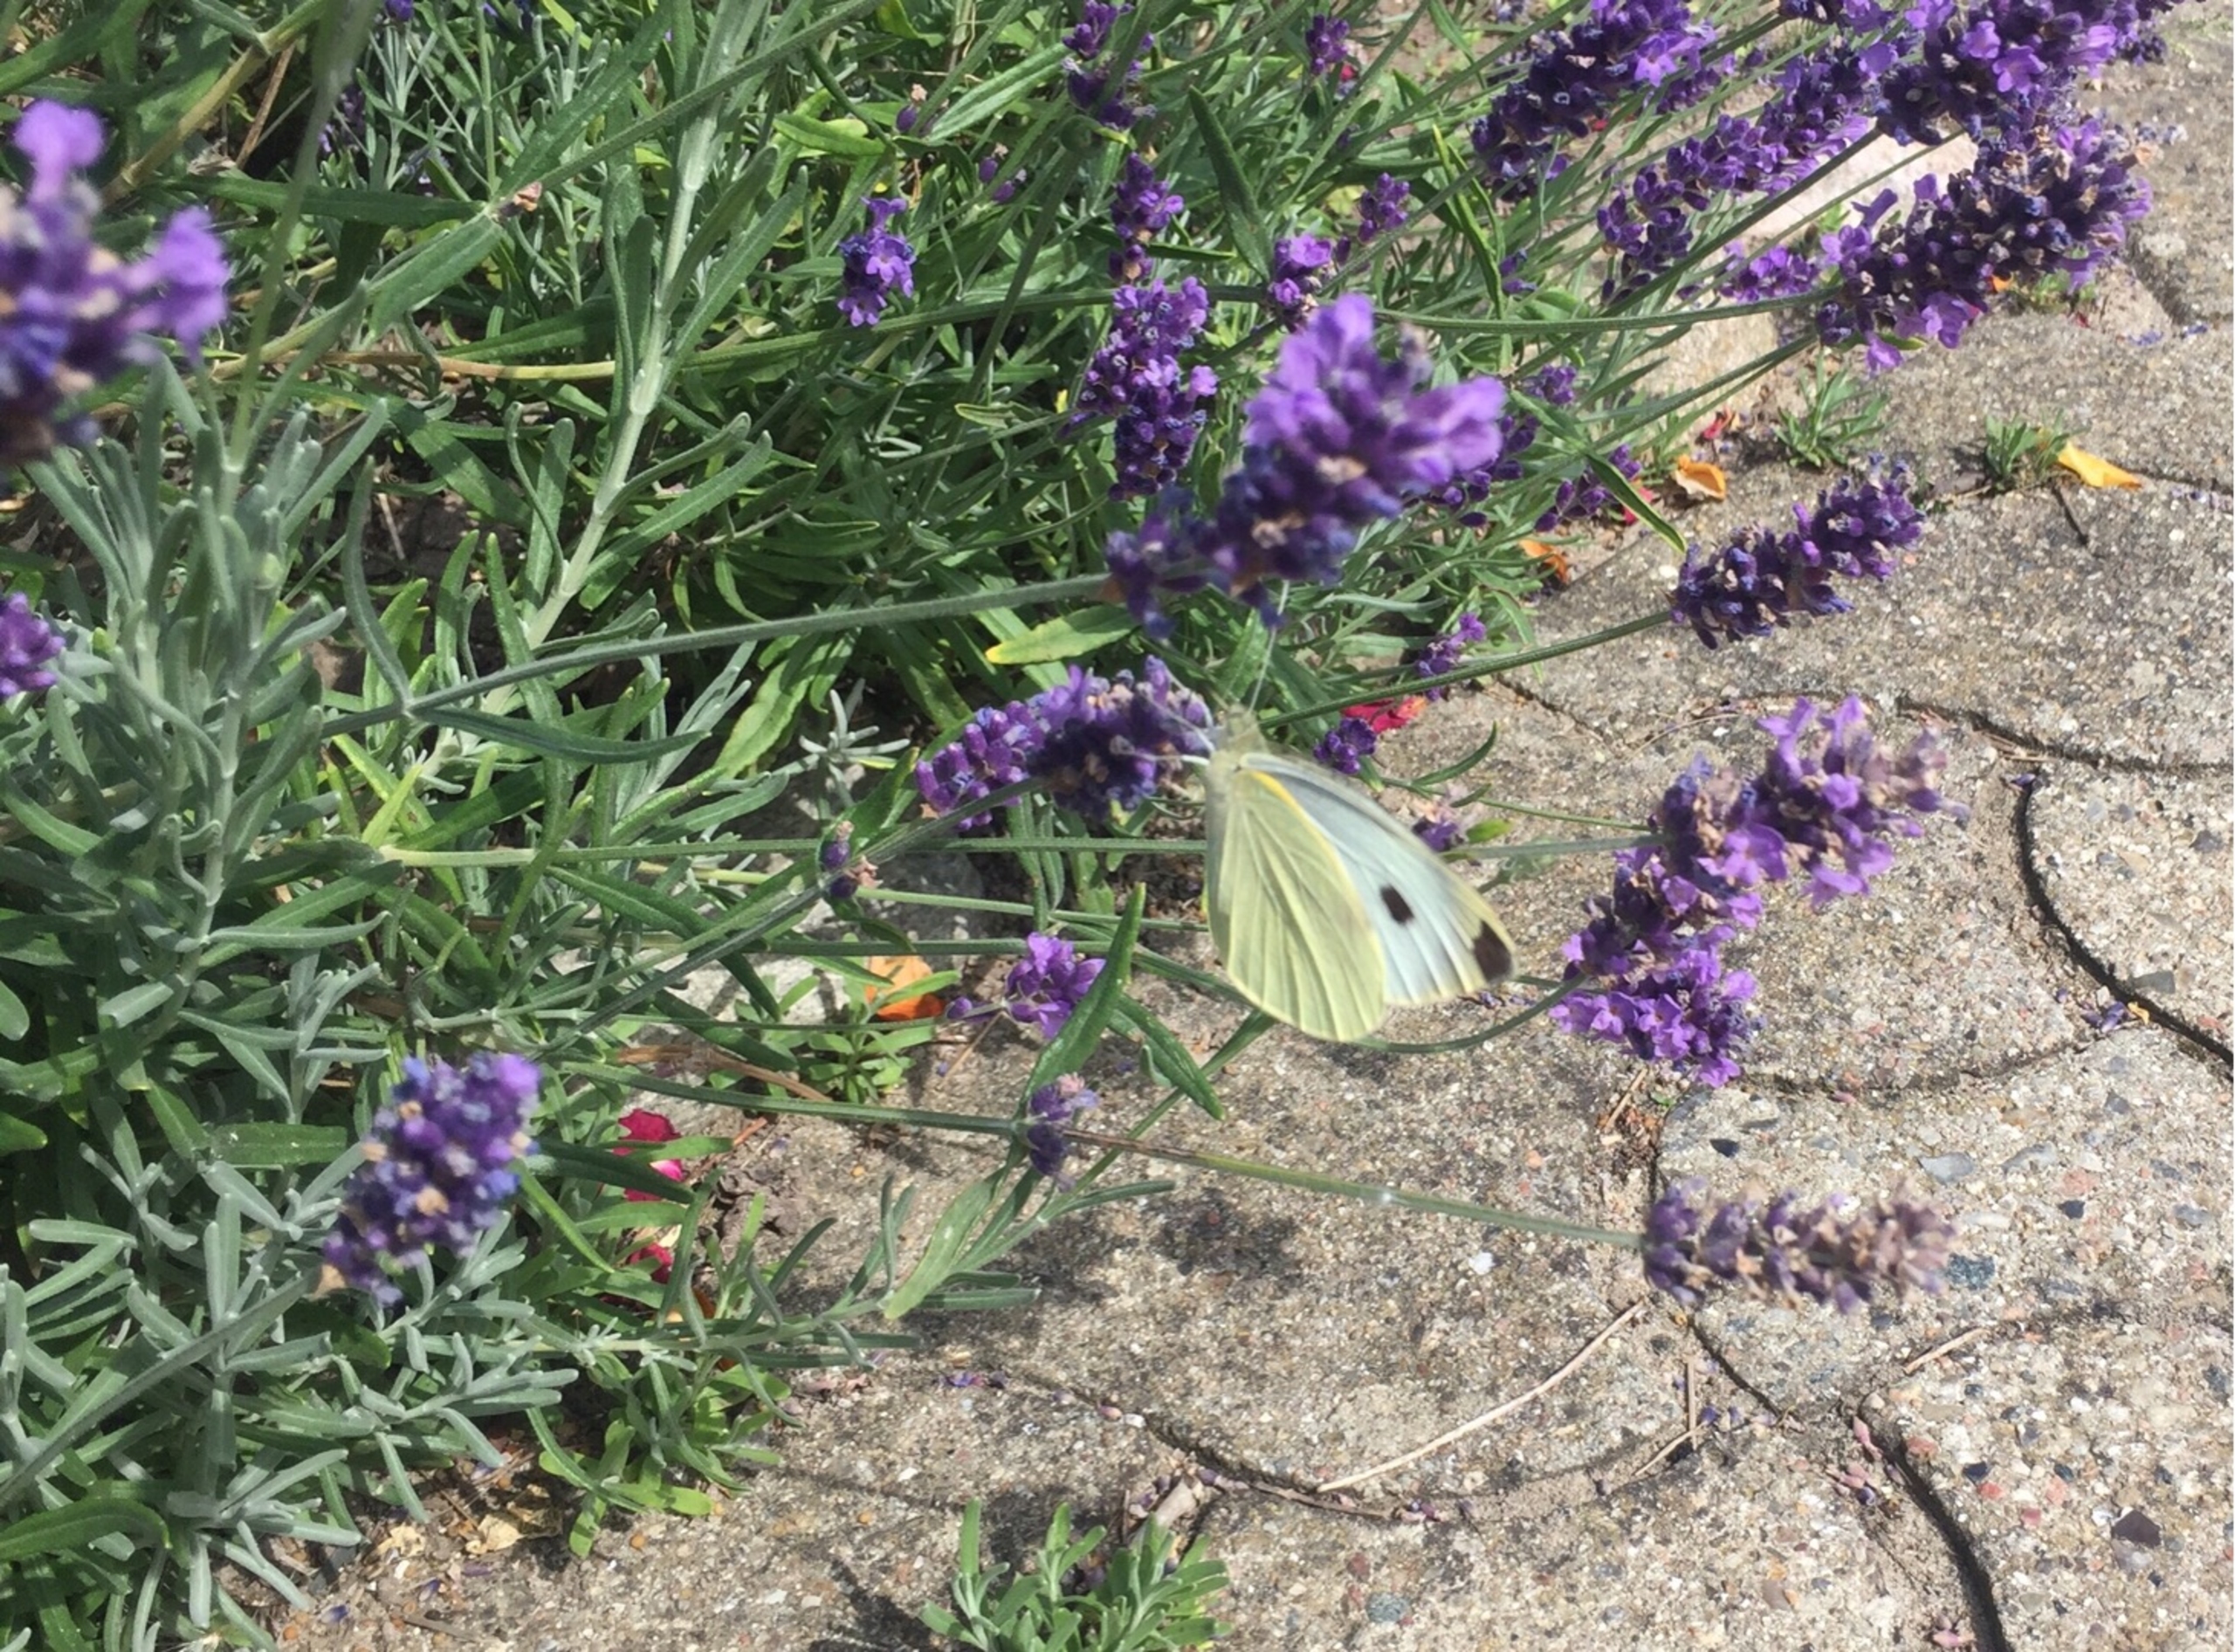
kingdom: Animalia
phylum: Arthropoda
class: Insecta
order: Lepidoptera
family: Pieridae
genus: Pieris
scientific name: Pieris brassicae
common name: Stor kålsommerfugl
